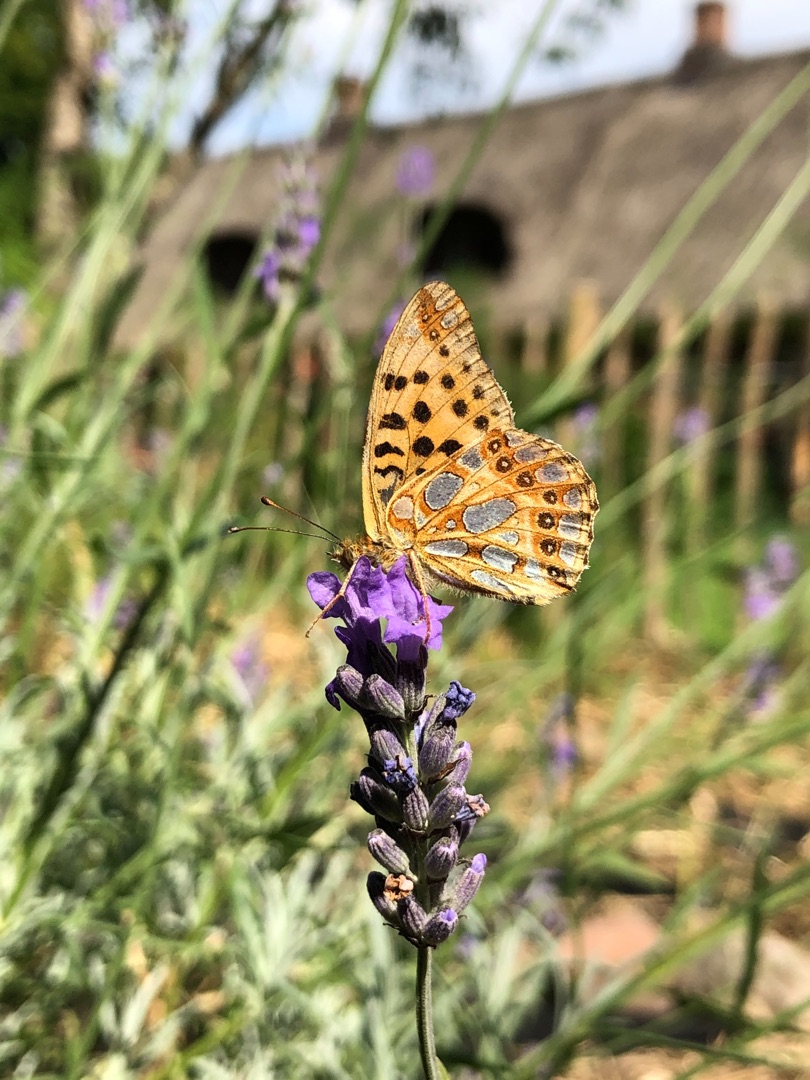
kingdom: Animalia
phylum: Arthropoda
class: Insecta
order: Lepidoptera
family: Nymphalidae
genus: Issoria
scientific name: Issoria lathonia
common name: Storplettet perlemorsommerfugl
